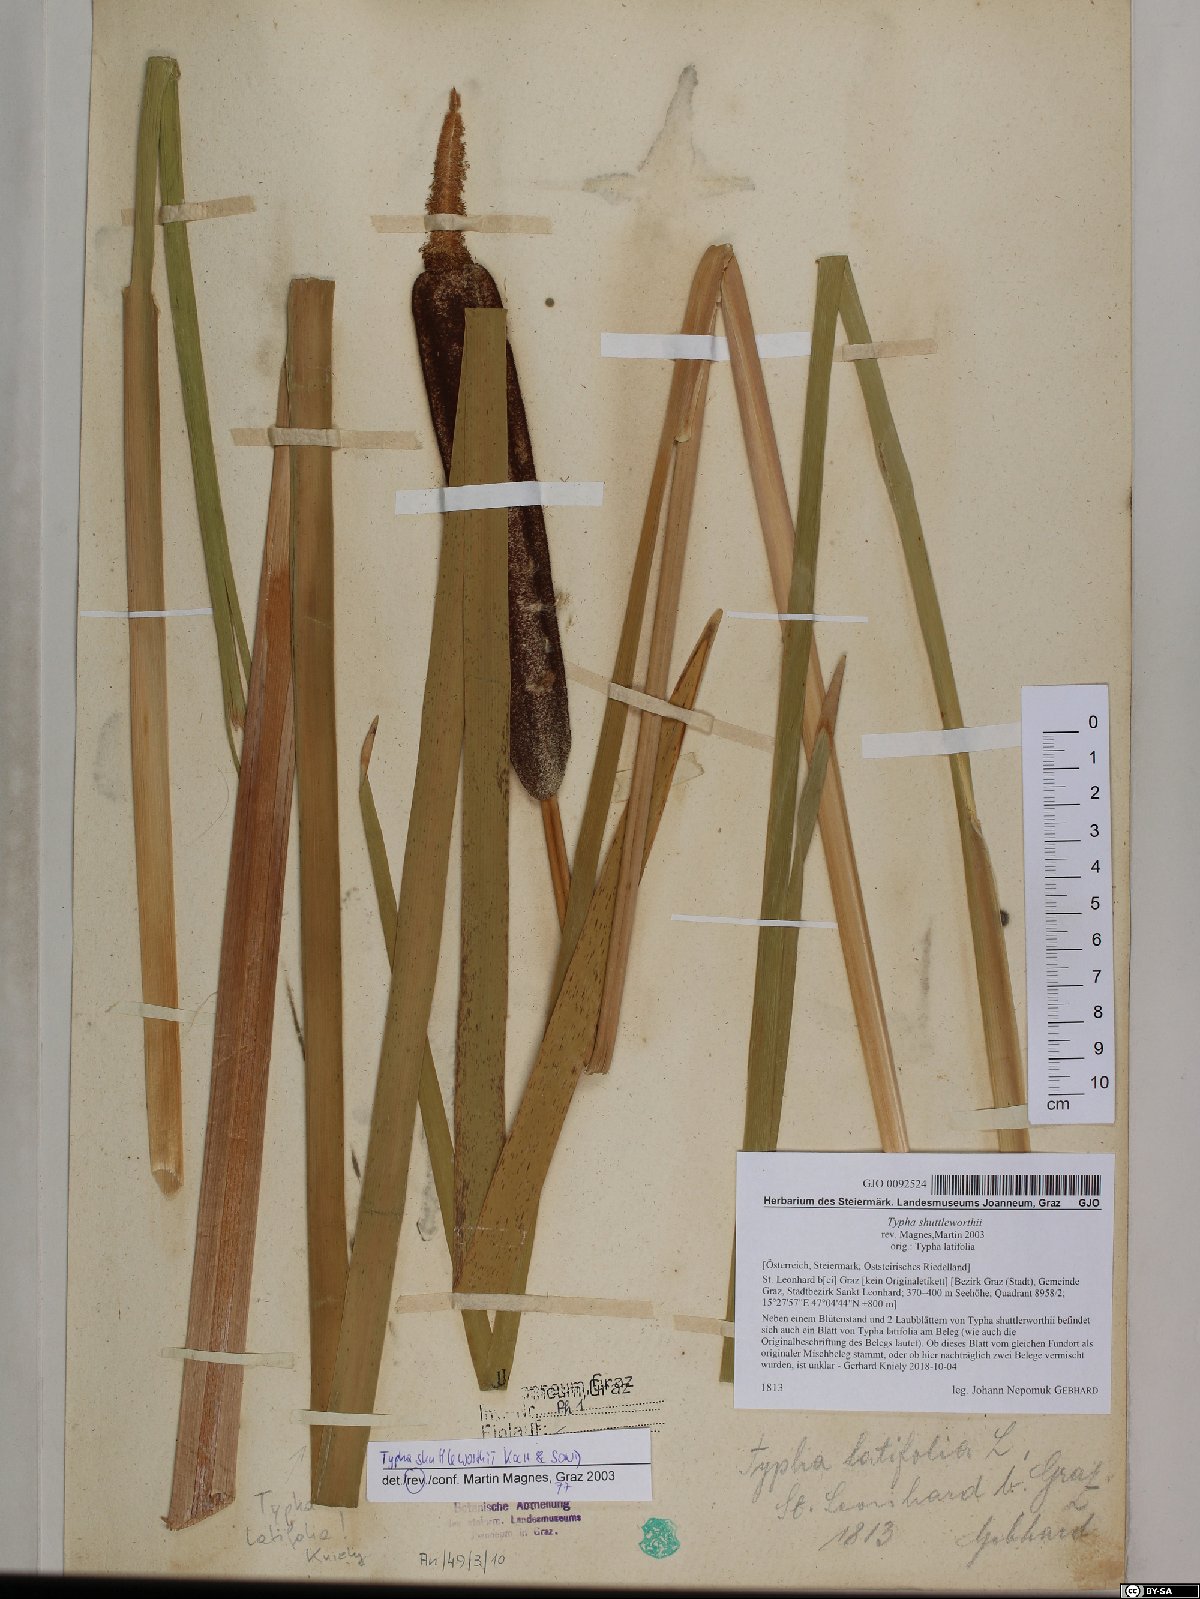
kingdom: Plantae
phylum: Tracheophyta
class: Liliopsida
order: Poales
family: Typhaceae
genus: Typha
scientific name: Typha shuttleworthii
